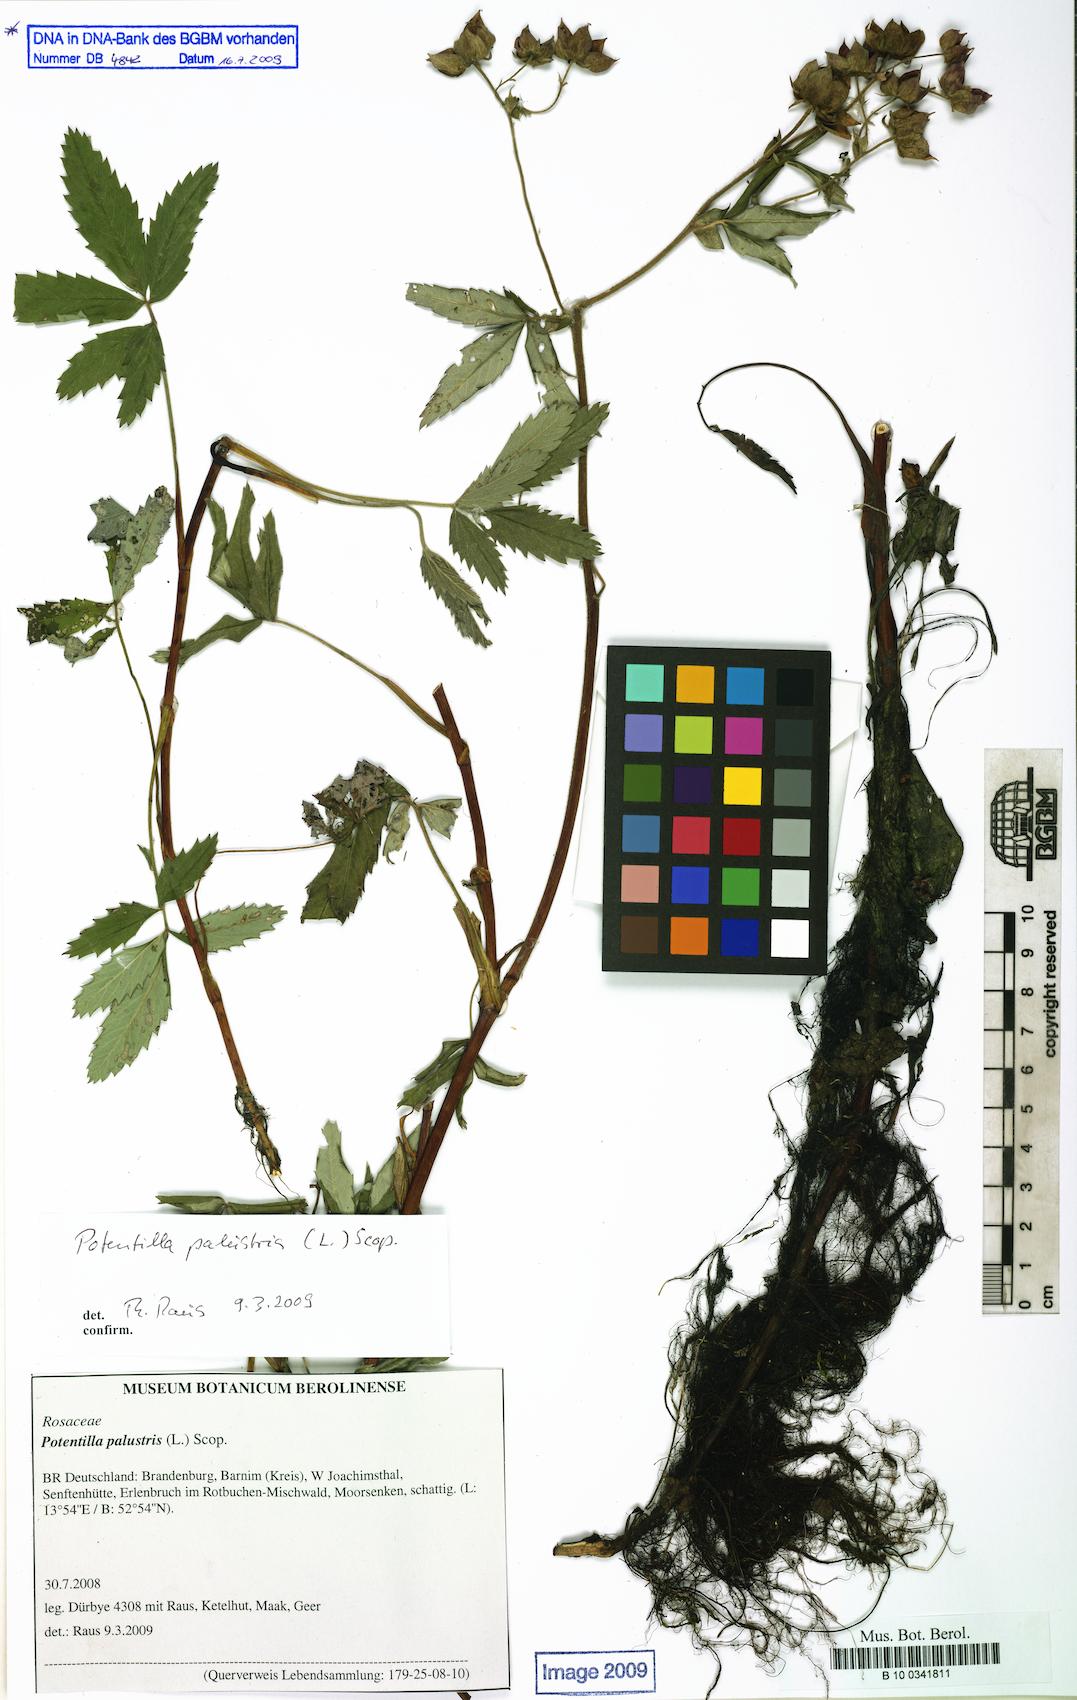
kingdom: Plantae
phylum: Tracheophyta
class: Magnoliopsida
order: Rosales
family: Rosaceae
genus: Comarum
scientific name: Comarum palustre
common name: Marsh cinquefoil
